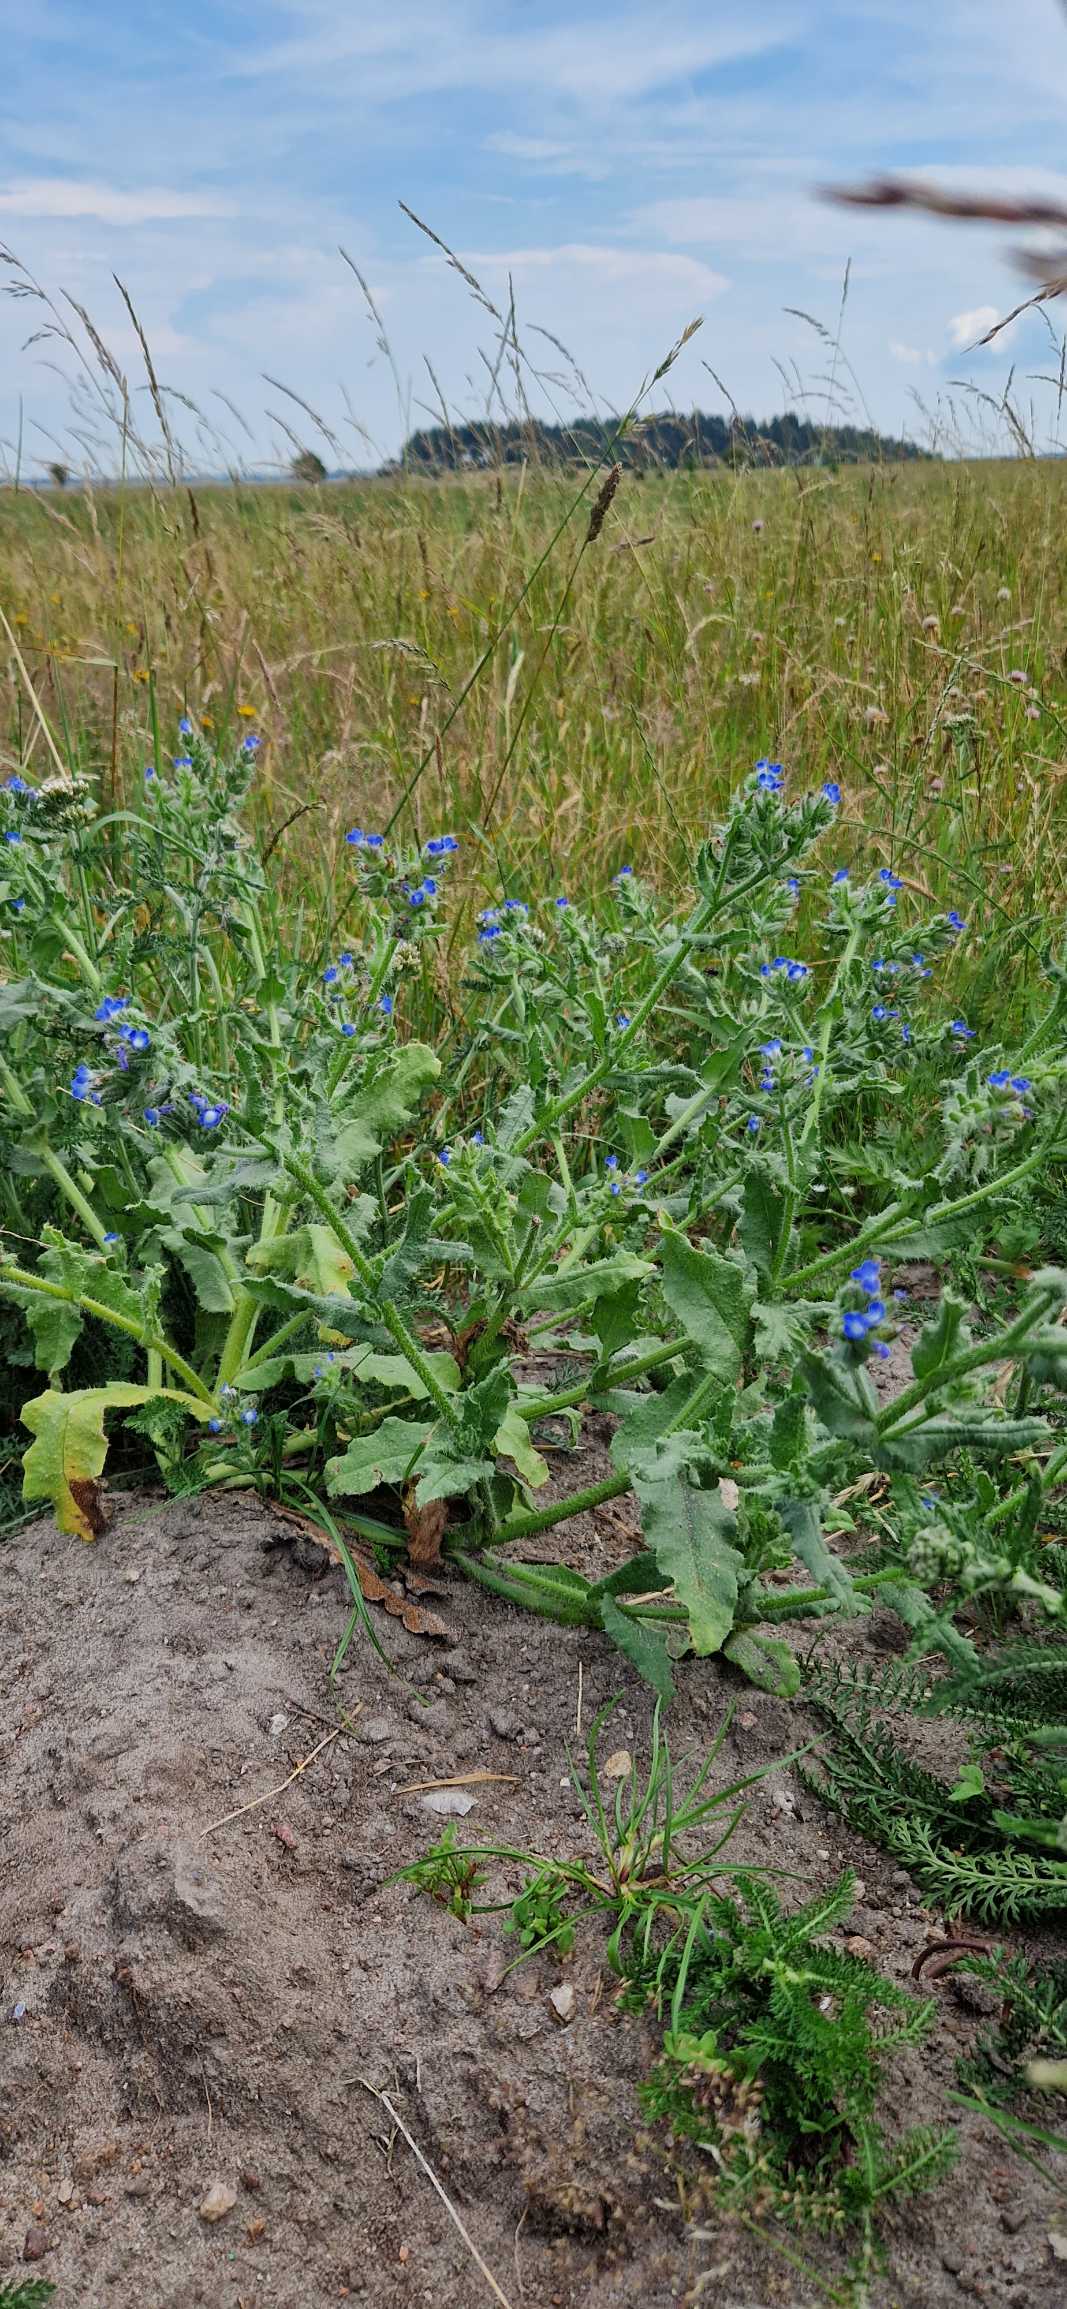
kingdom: Plantae
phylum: Tracheophyta
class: Magnoliopsida
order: Boraginales
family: Boraginaceae
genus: Lycopsis
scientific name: Lycopsis arvensis
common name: Krumhals
